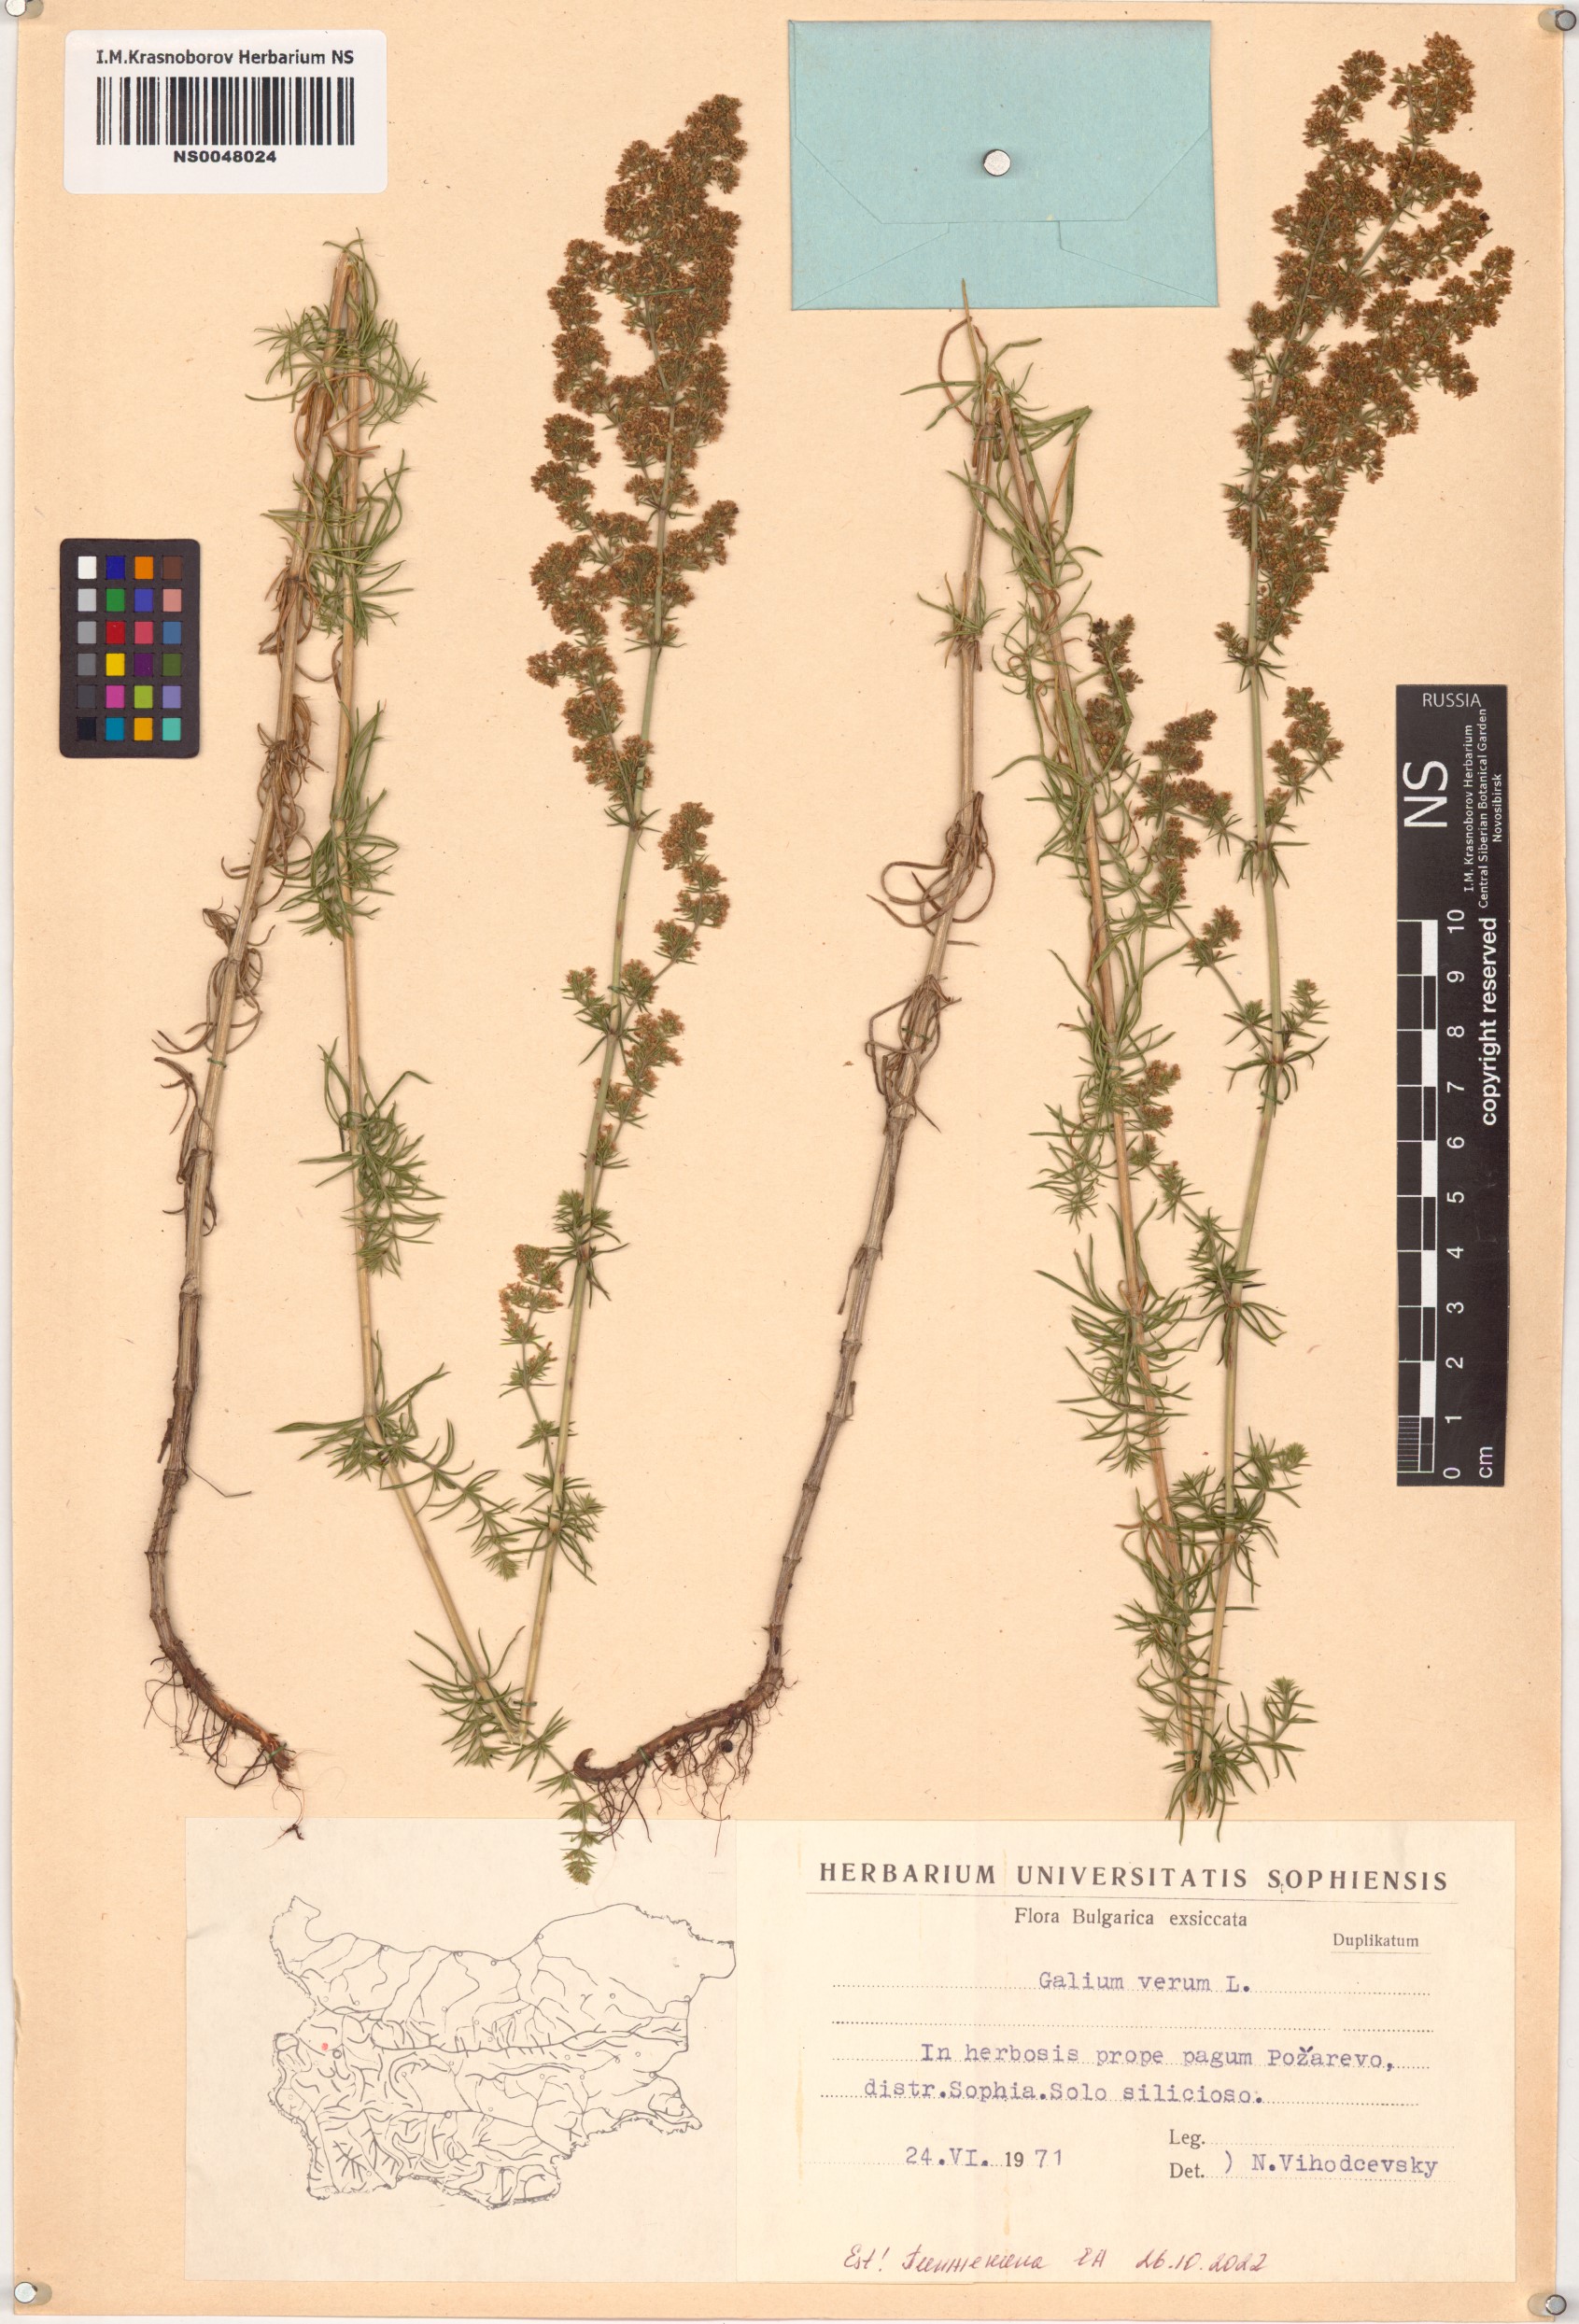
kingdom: Plantae
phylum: Tracheophyta
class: Magnoliopsida
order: Gentianales
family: Rubiaceae
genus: Galium
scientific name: Galium verum
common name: Lady's bedstraw
